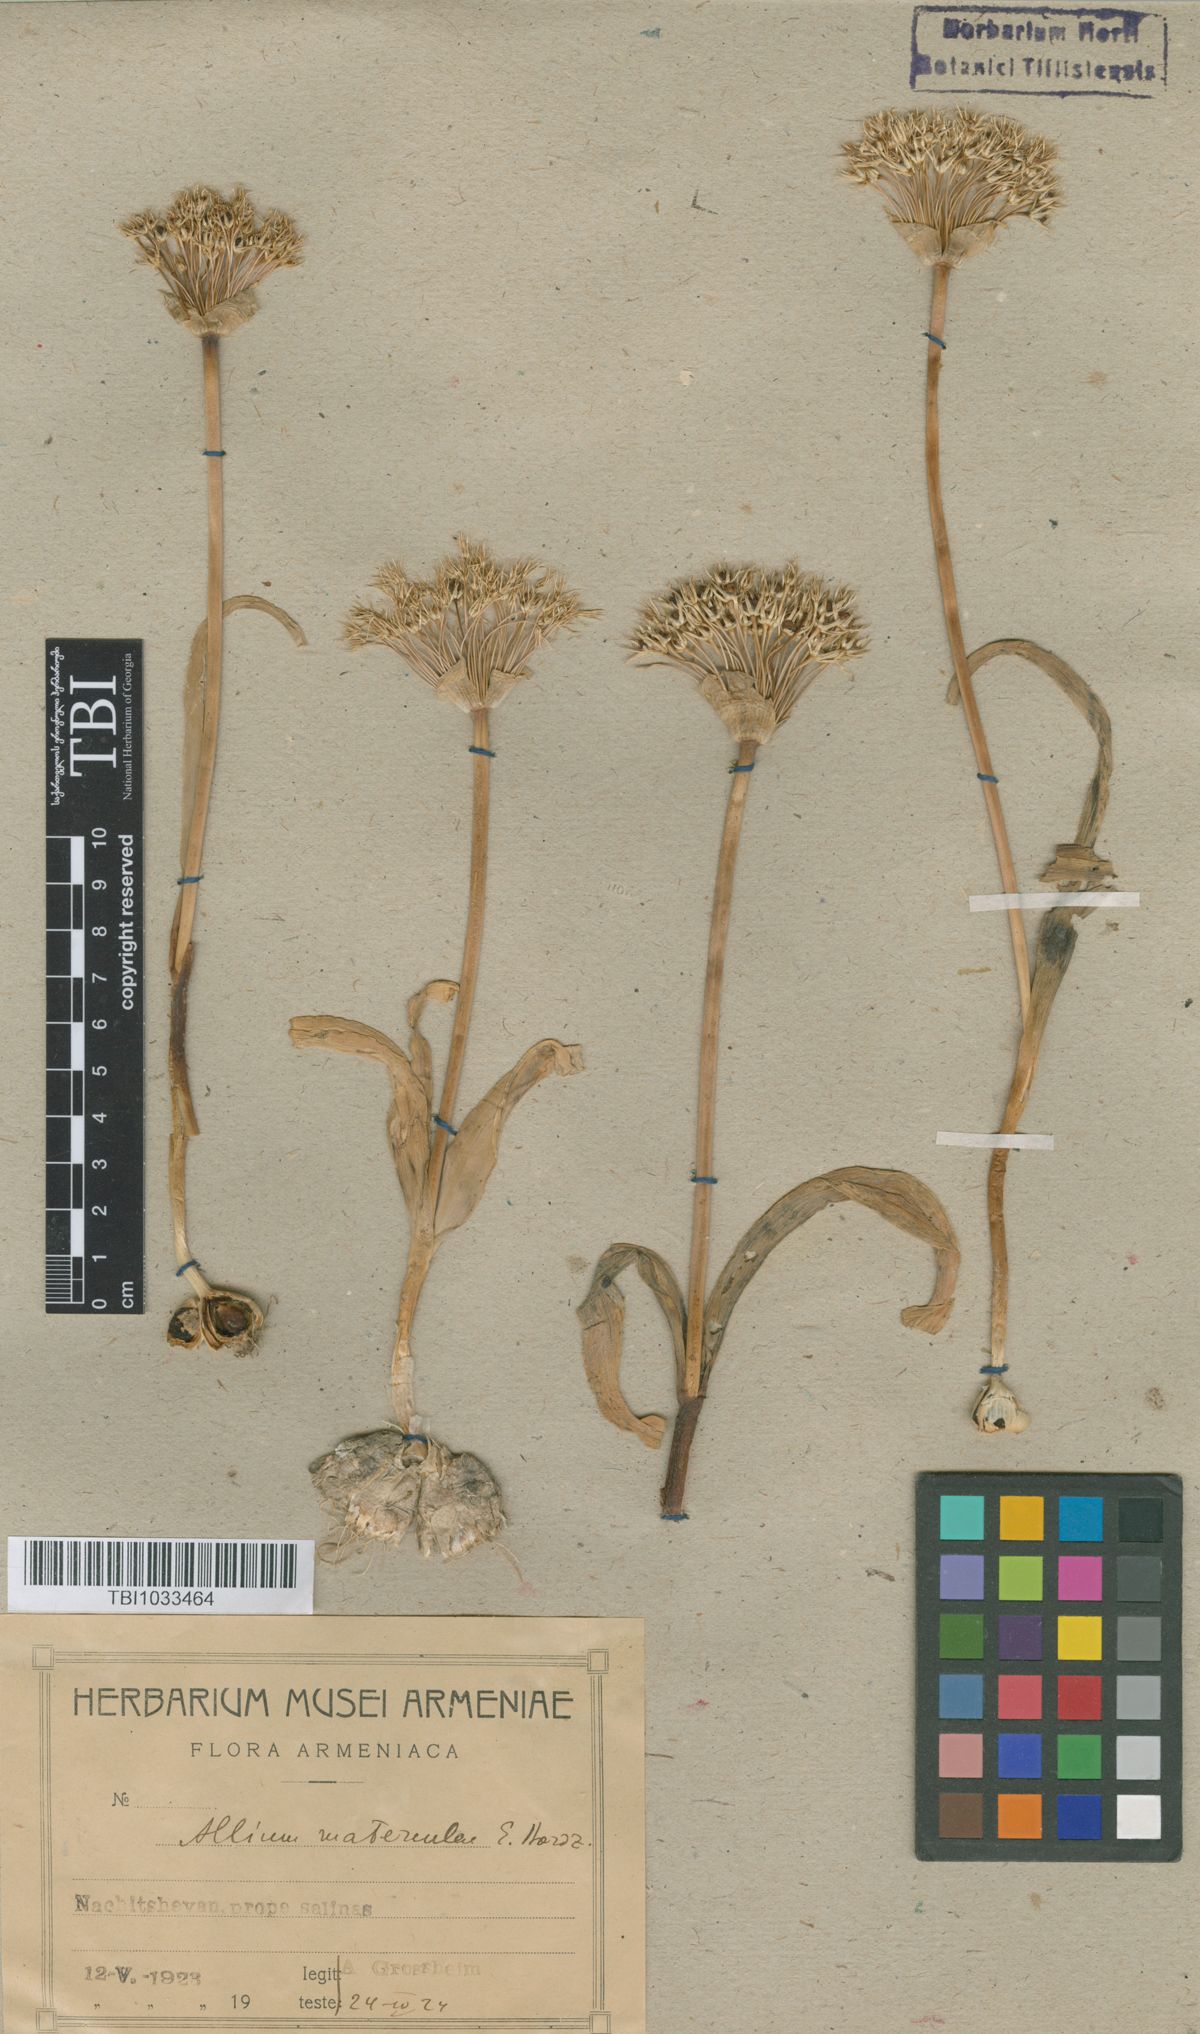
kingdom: Plantae
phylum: Tracheophyta
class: Liliopsida
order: Asparagales
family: Amaryllidaceae
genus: Allium
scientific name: Allium materculae
